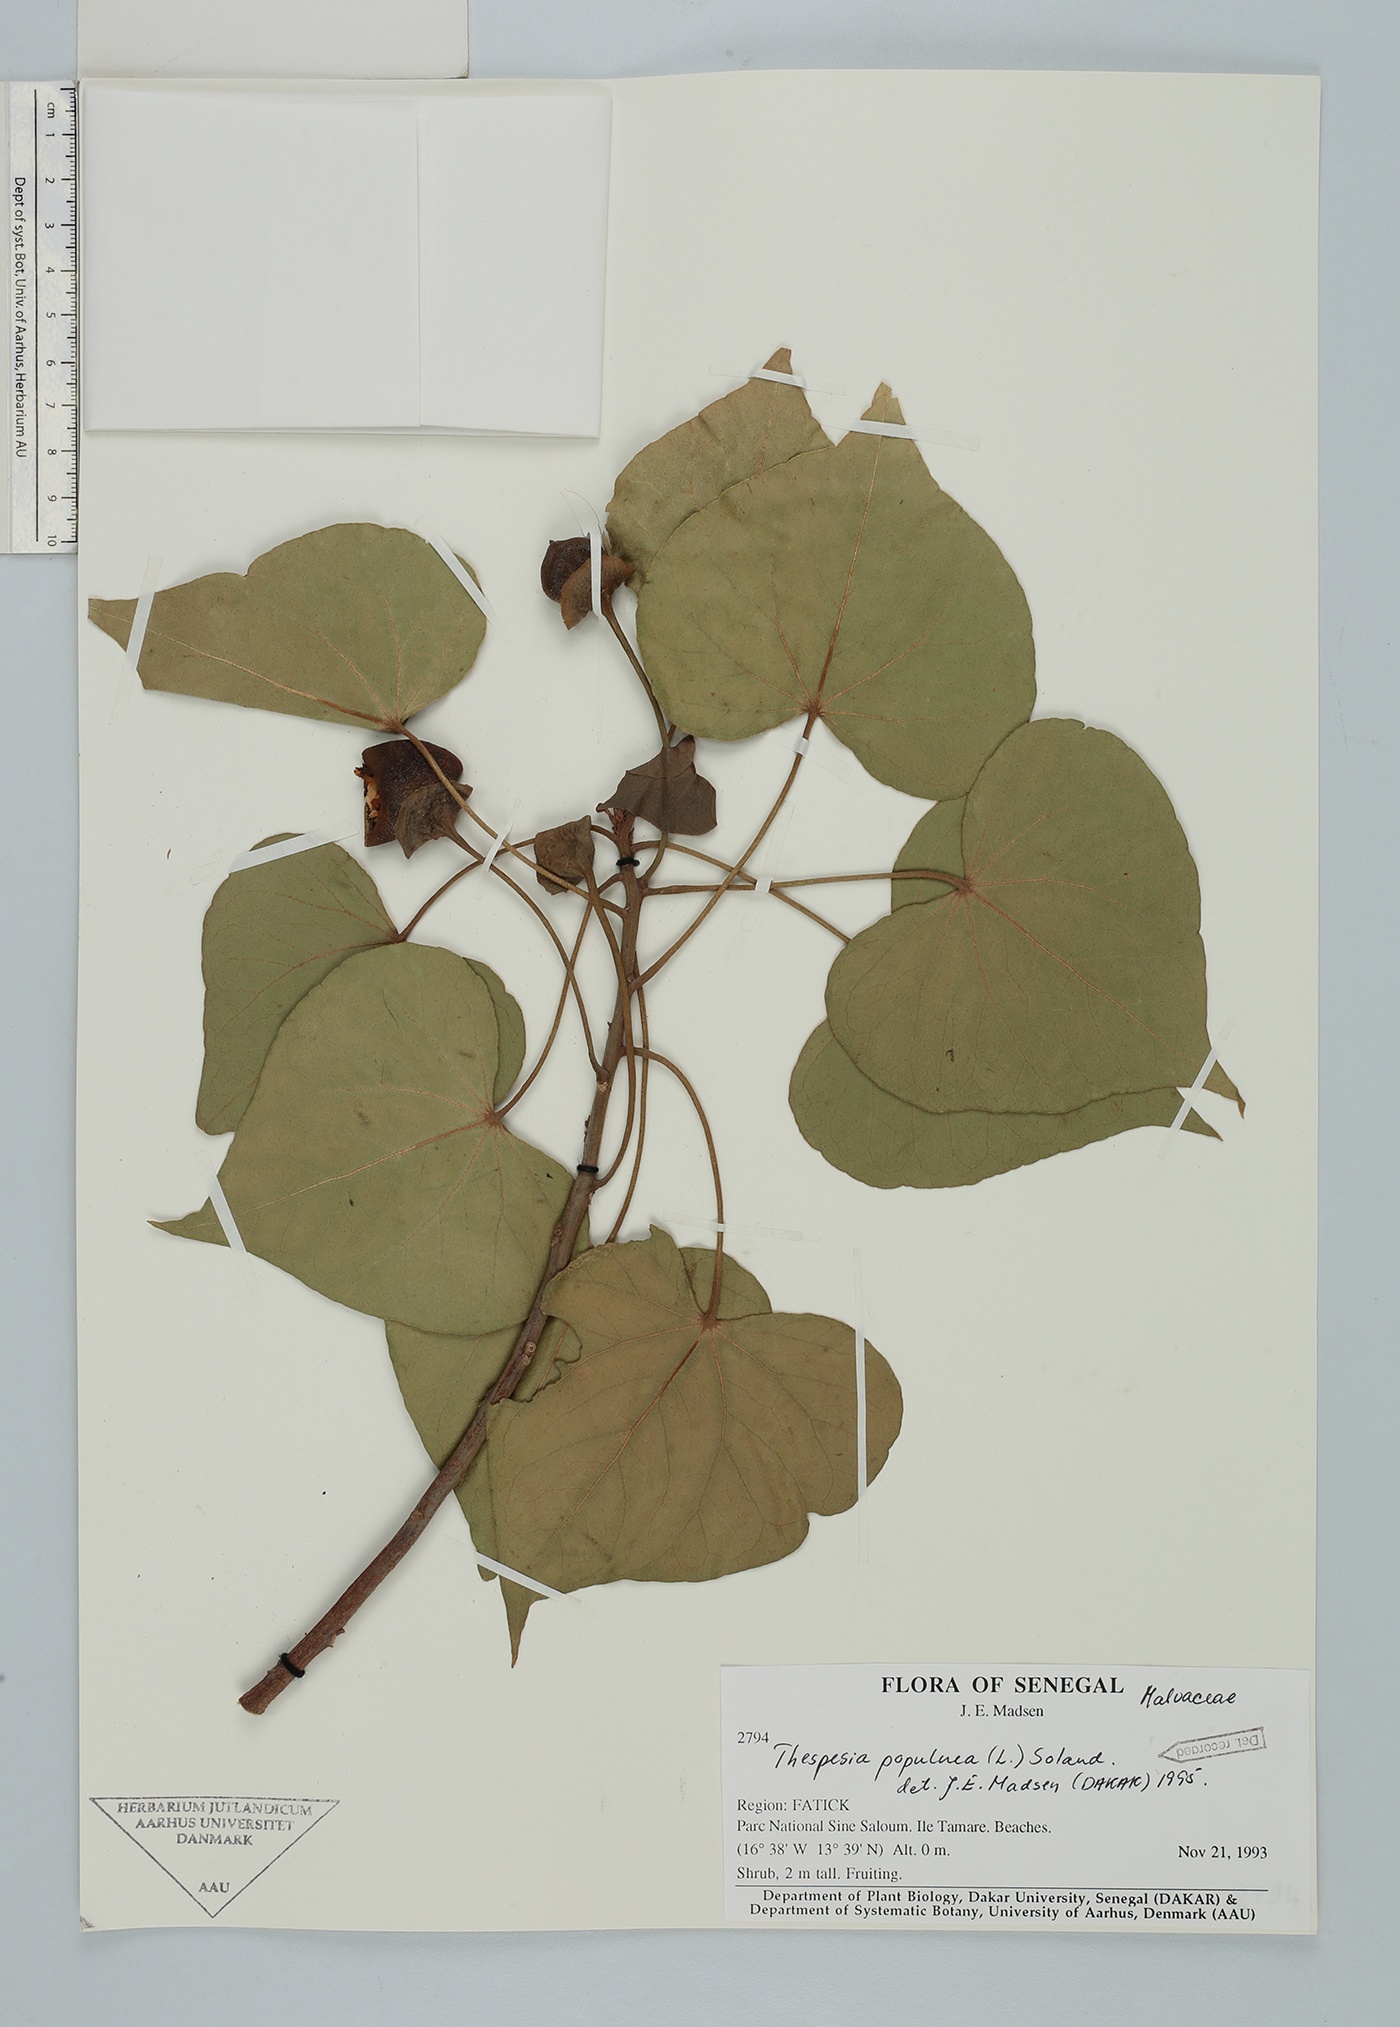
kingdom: Plantae
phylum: Tracheophyta
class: Magnoliopsida
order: Malvales
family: Malvaceae
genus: Thespesia
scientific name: Thespesia populnea
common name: Seaside mahoe
